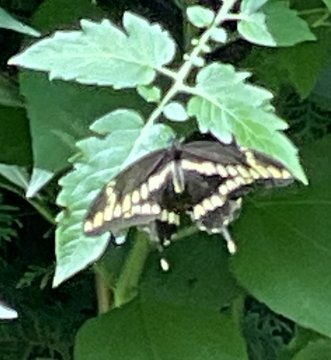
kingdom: Animalia
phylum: Arthropoda
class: Insecta
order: Lepidoptera
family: Papilionidae
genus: Papilio
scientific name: Papilio cresphontes
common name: Eastern Giant Swallowtail
